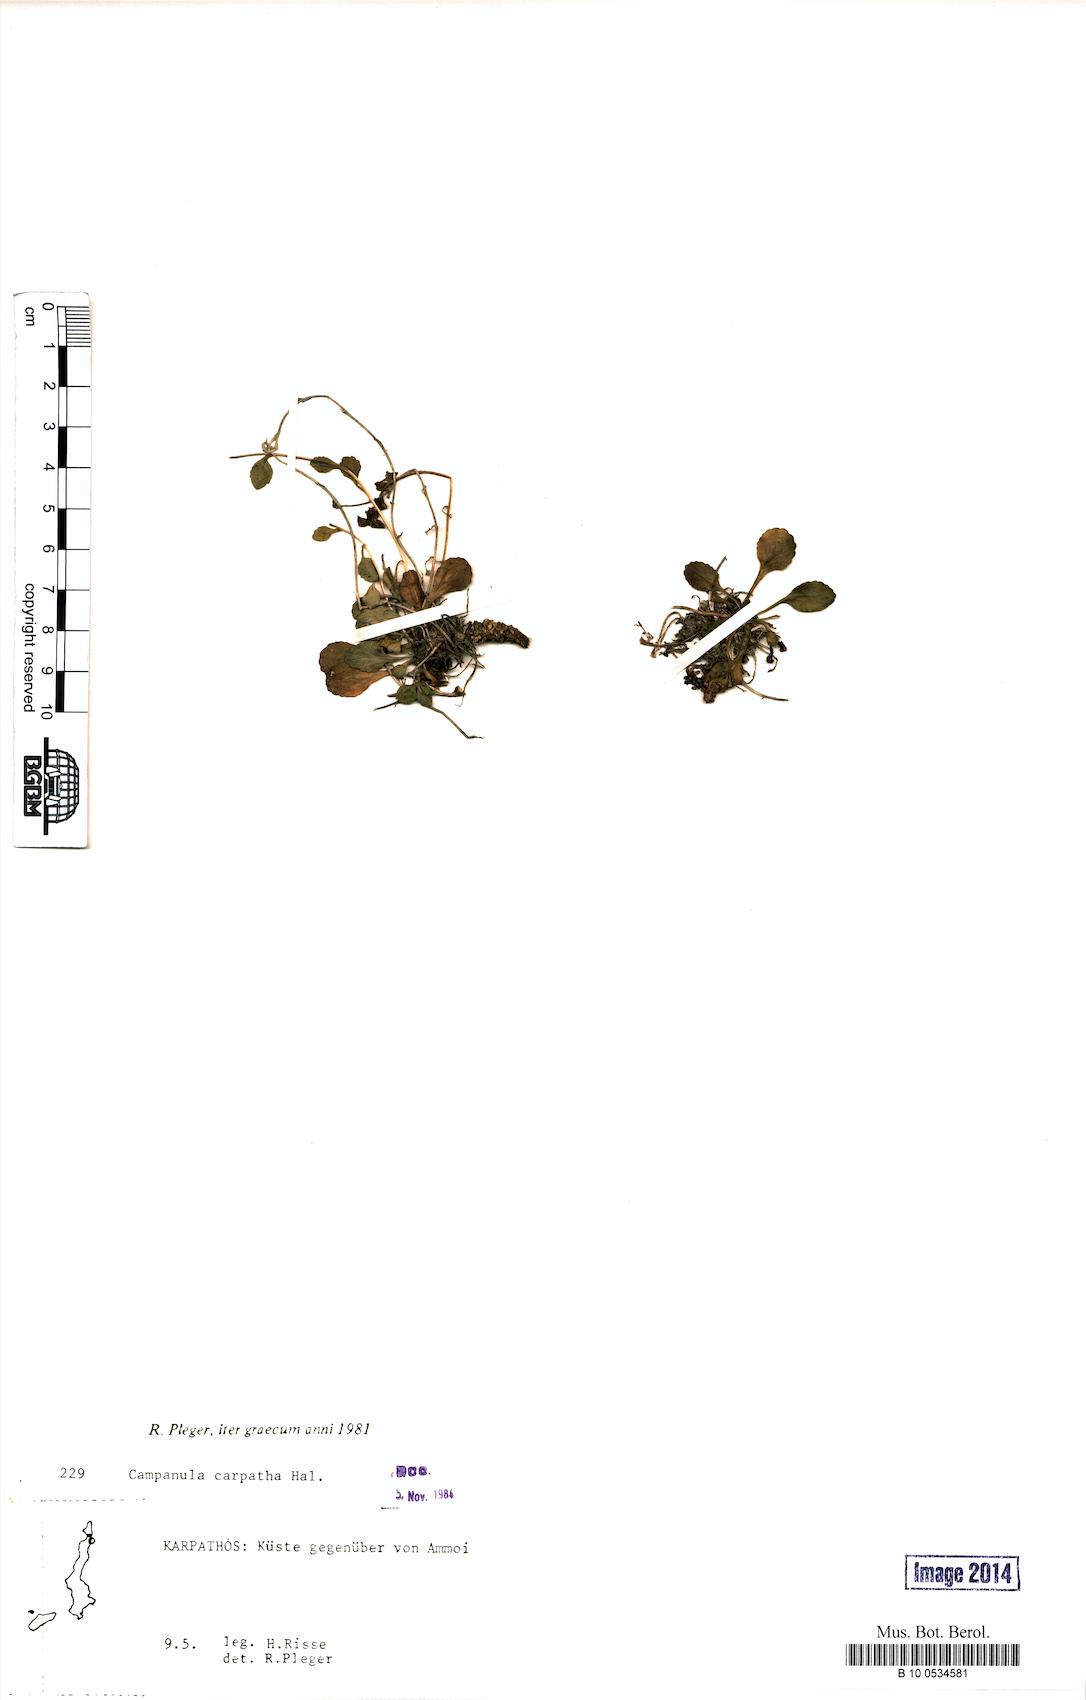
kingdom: Plantae
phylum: Tracheophyta
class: Magnoliopsida
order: Asterales
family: Campanulaceae
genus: Campanula
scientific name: Campanula carpatha
